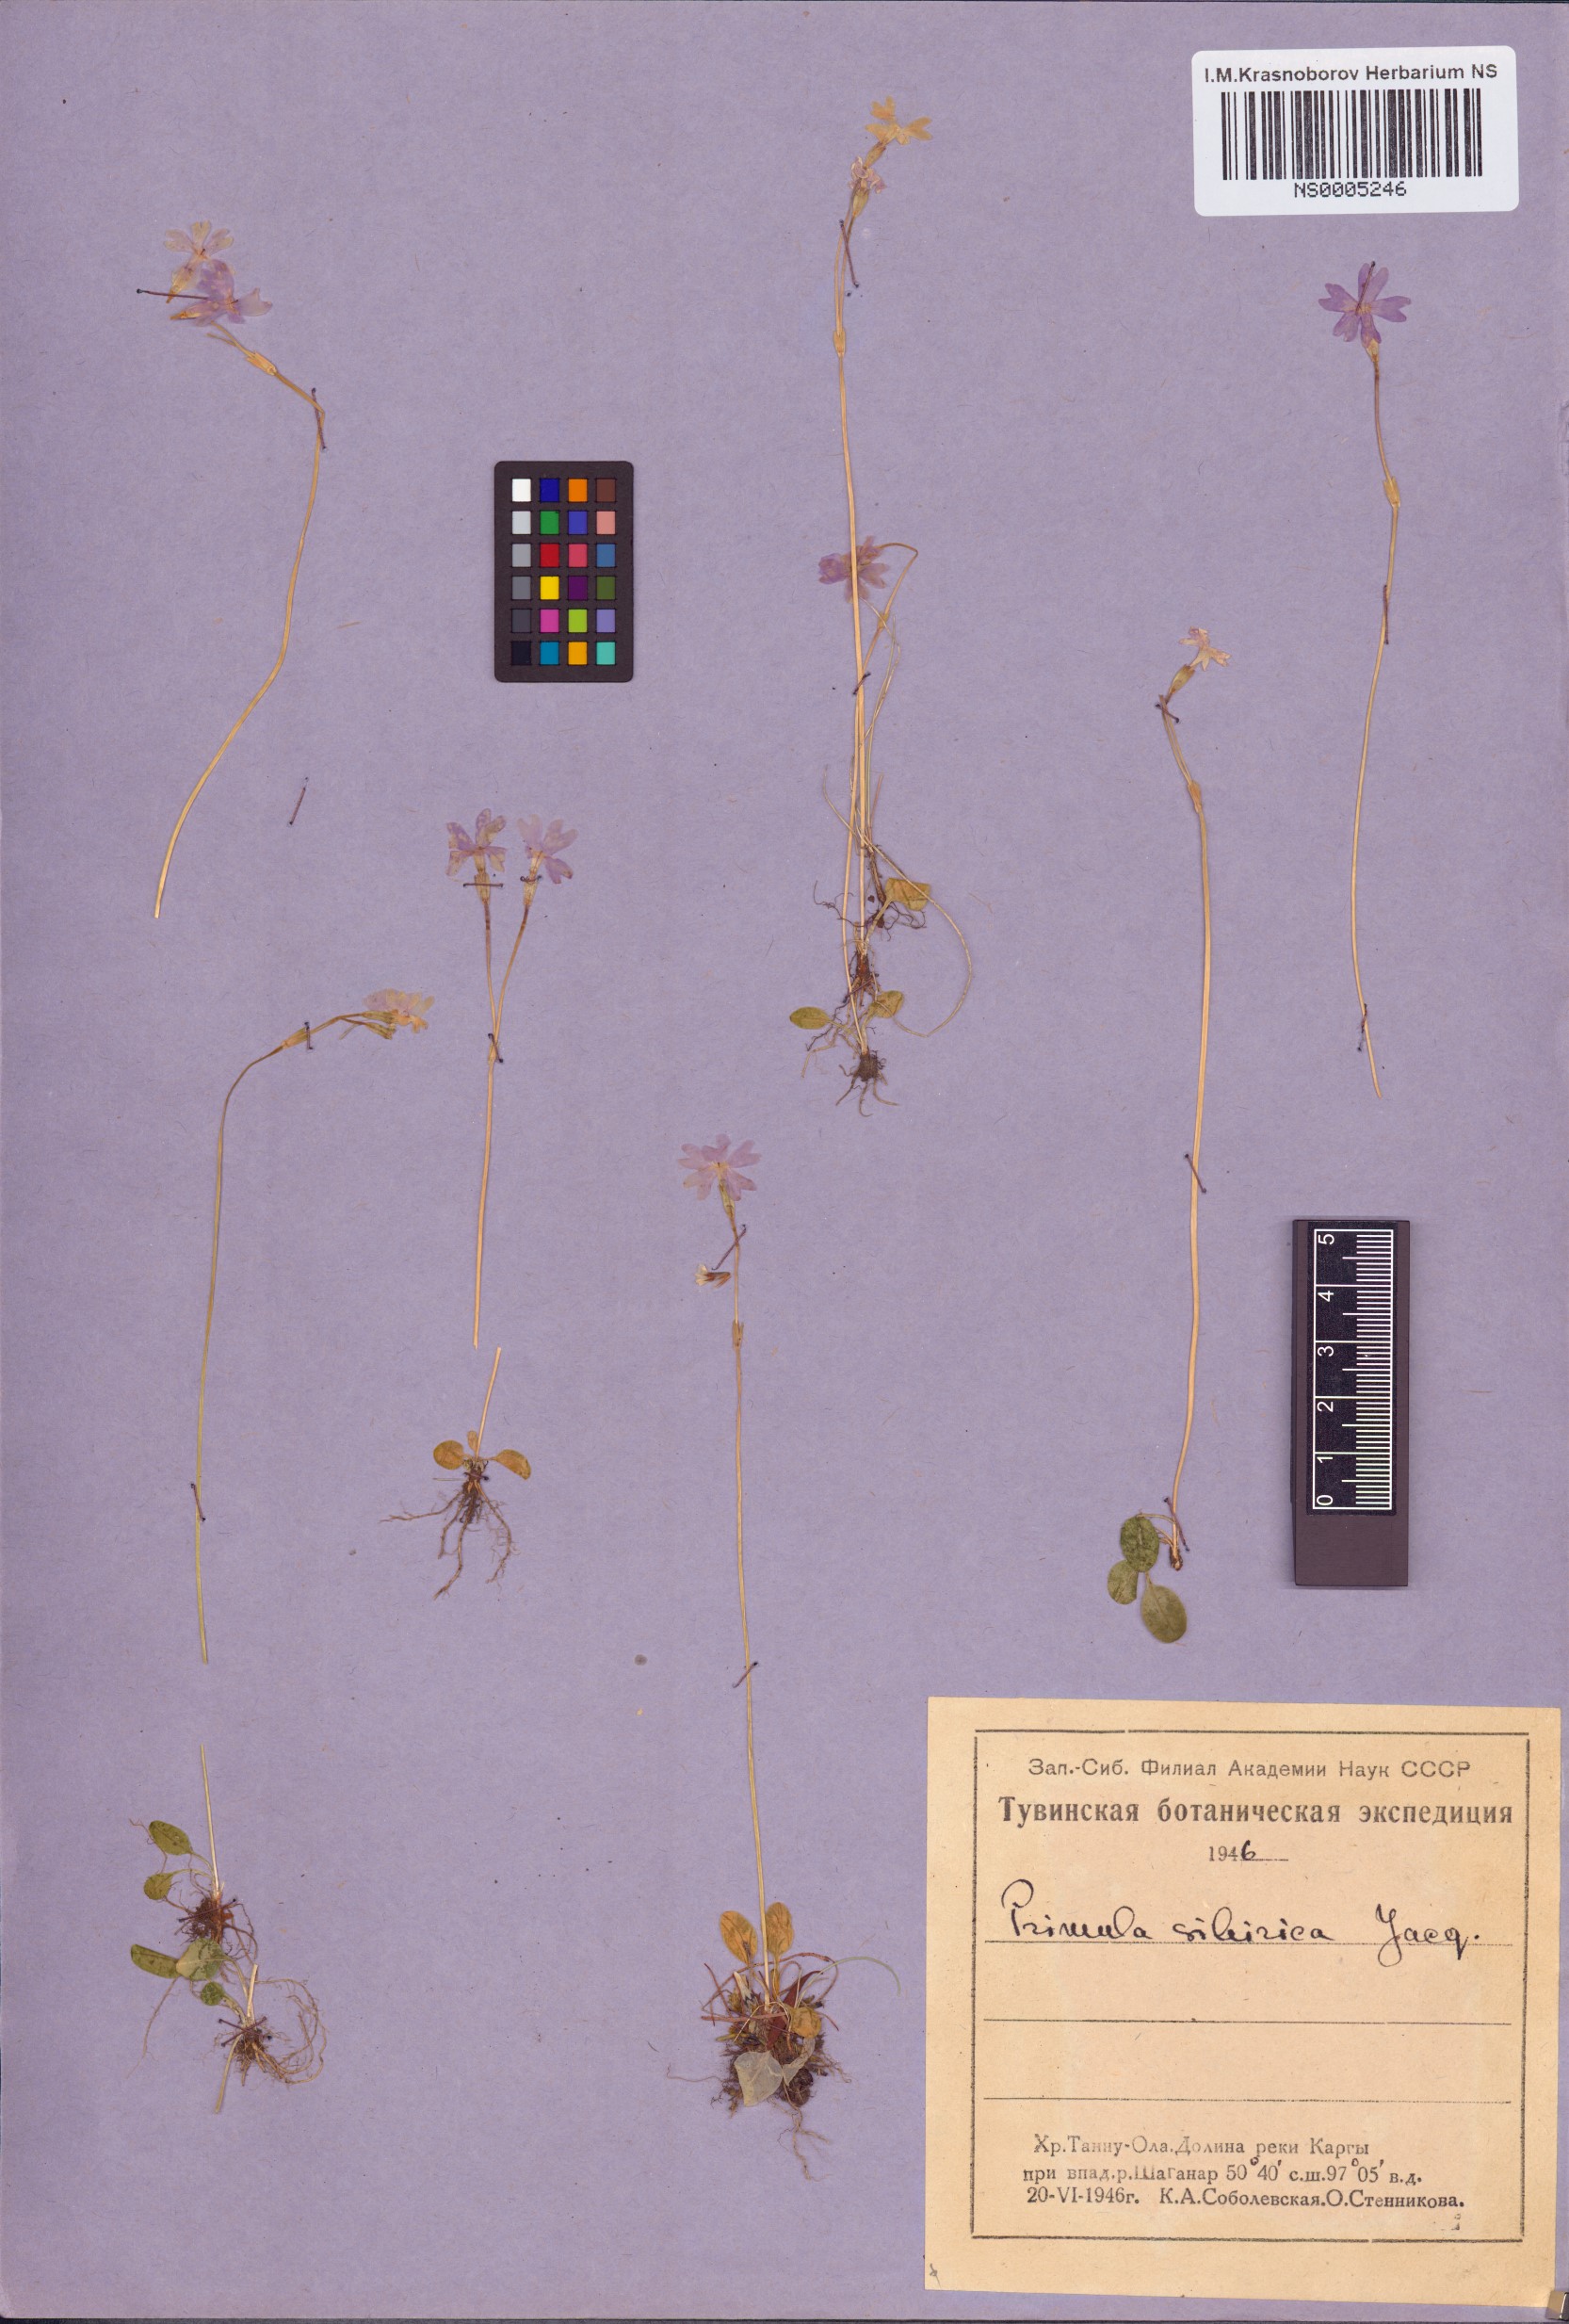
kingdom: Plantae
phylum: Tracheophyta
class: Magnoliopsida
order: Ericales
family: Primulaceae
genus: Primula
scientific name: Primula nutans
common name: Siberian primrose
